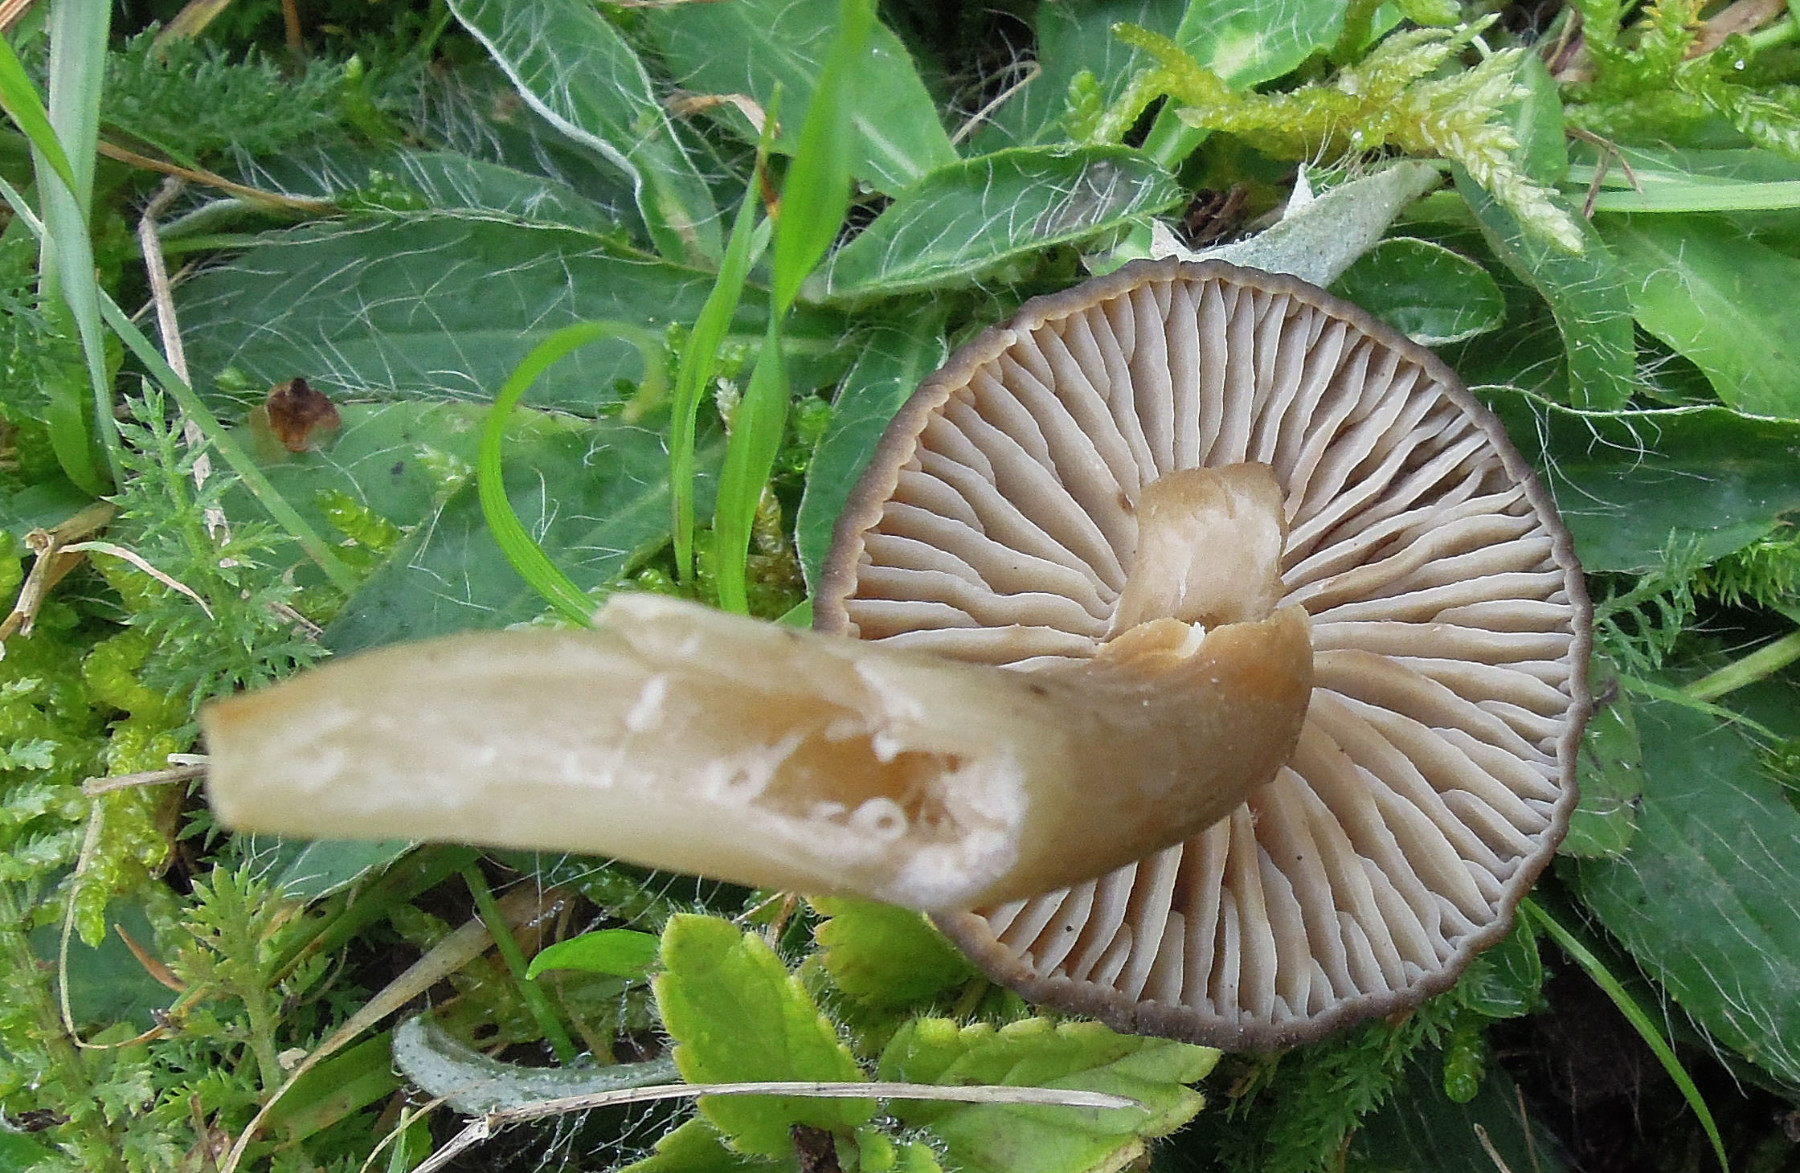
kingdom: Fungi
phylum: Basidiomycota
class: Agaricomycetes
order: Agaricales
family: Hygrophoraceae
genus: Neohygrocybe
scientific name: Neohygrocybe nitrata
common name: stinkende vokshat
